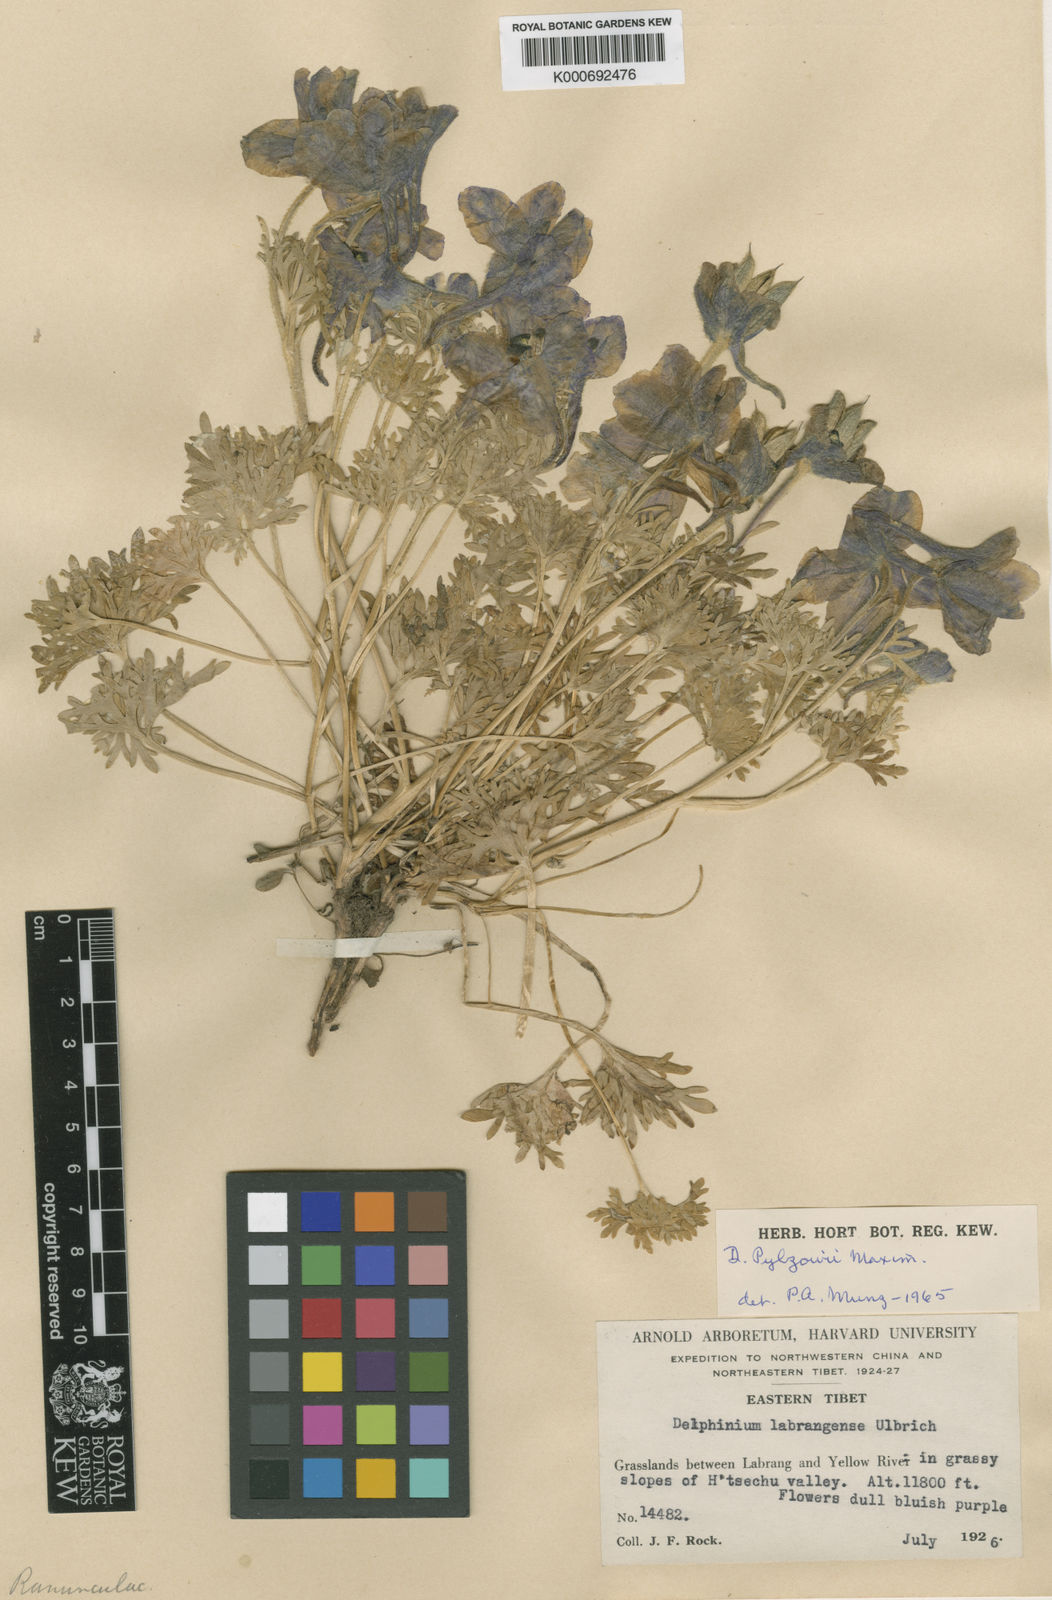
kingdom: Plantae
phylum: Tracheophyta
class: Magnoliopsida
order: Ranunculales
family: Ranunculaceae
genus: Delphinium
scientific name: Delphinium
